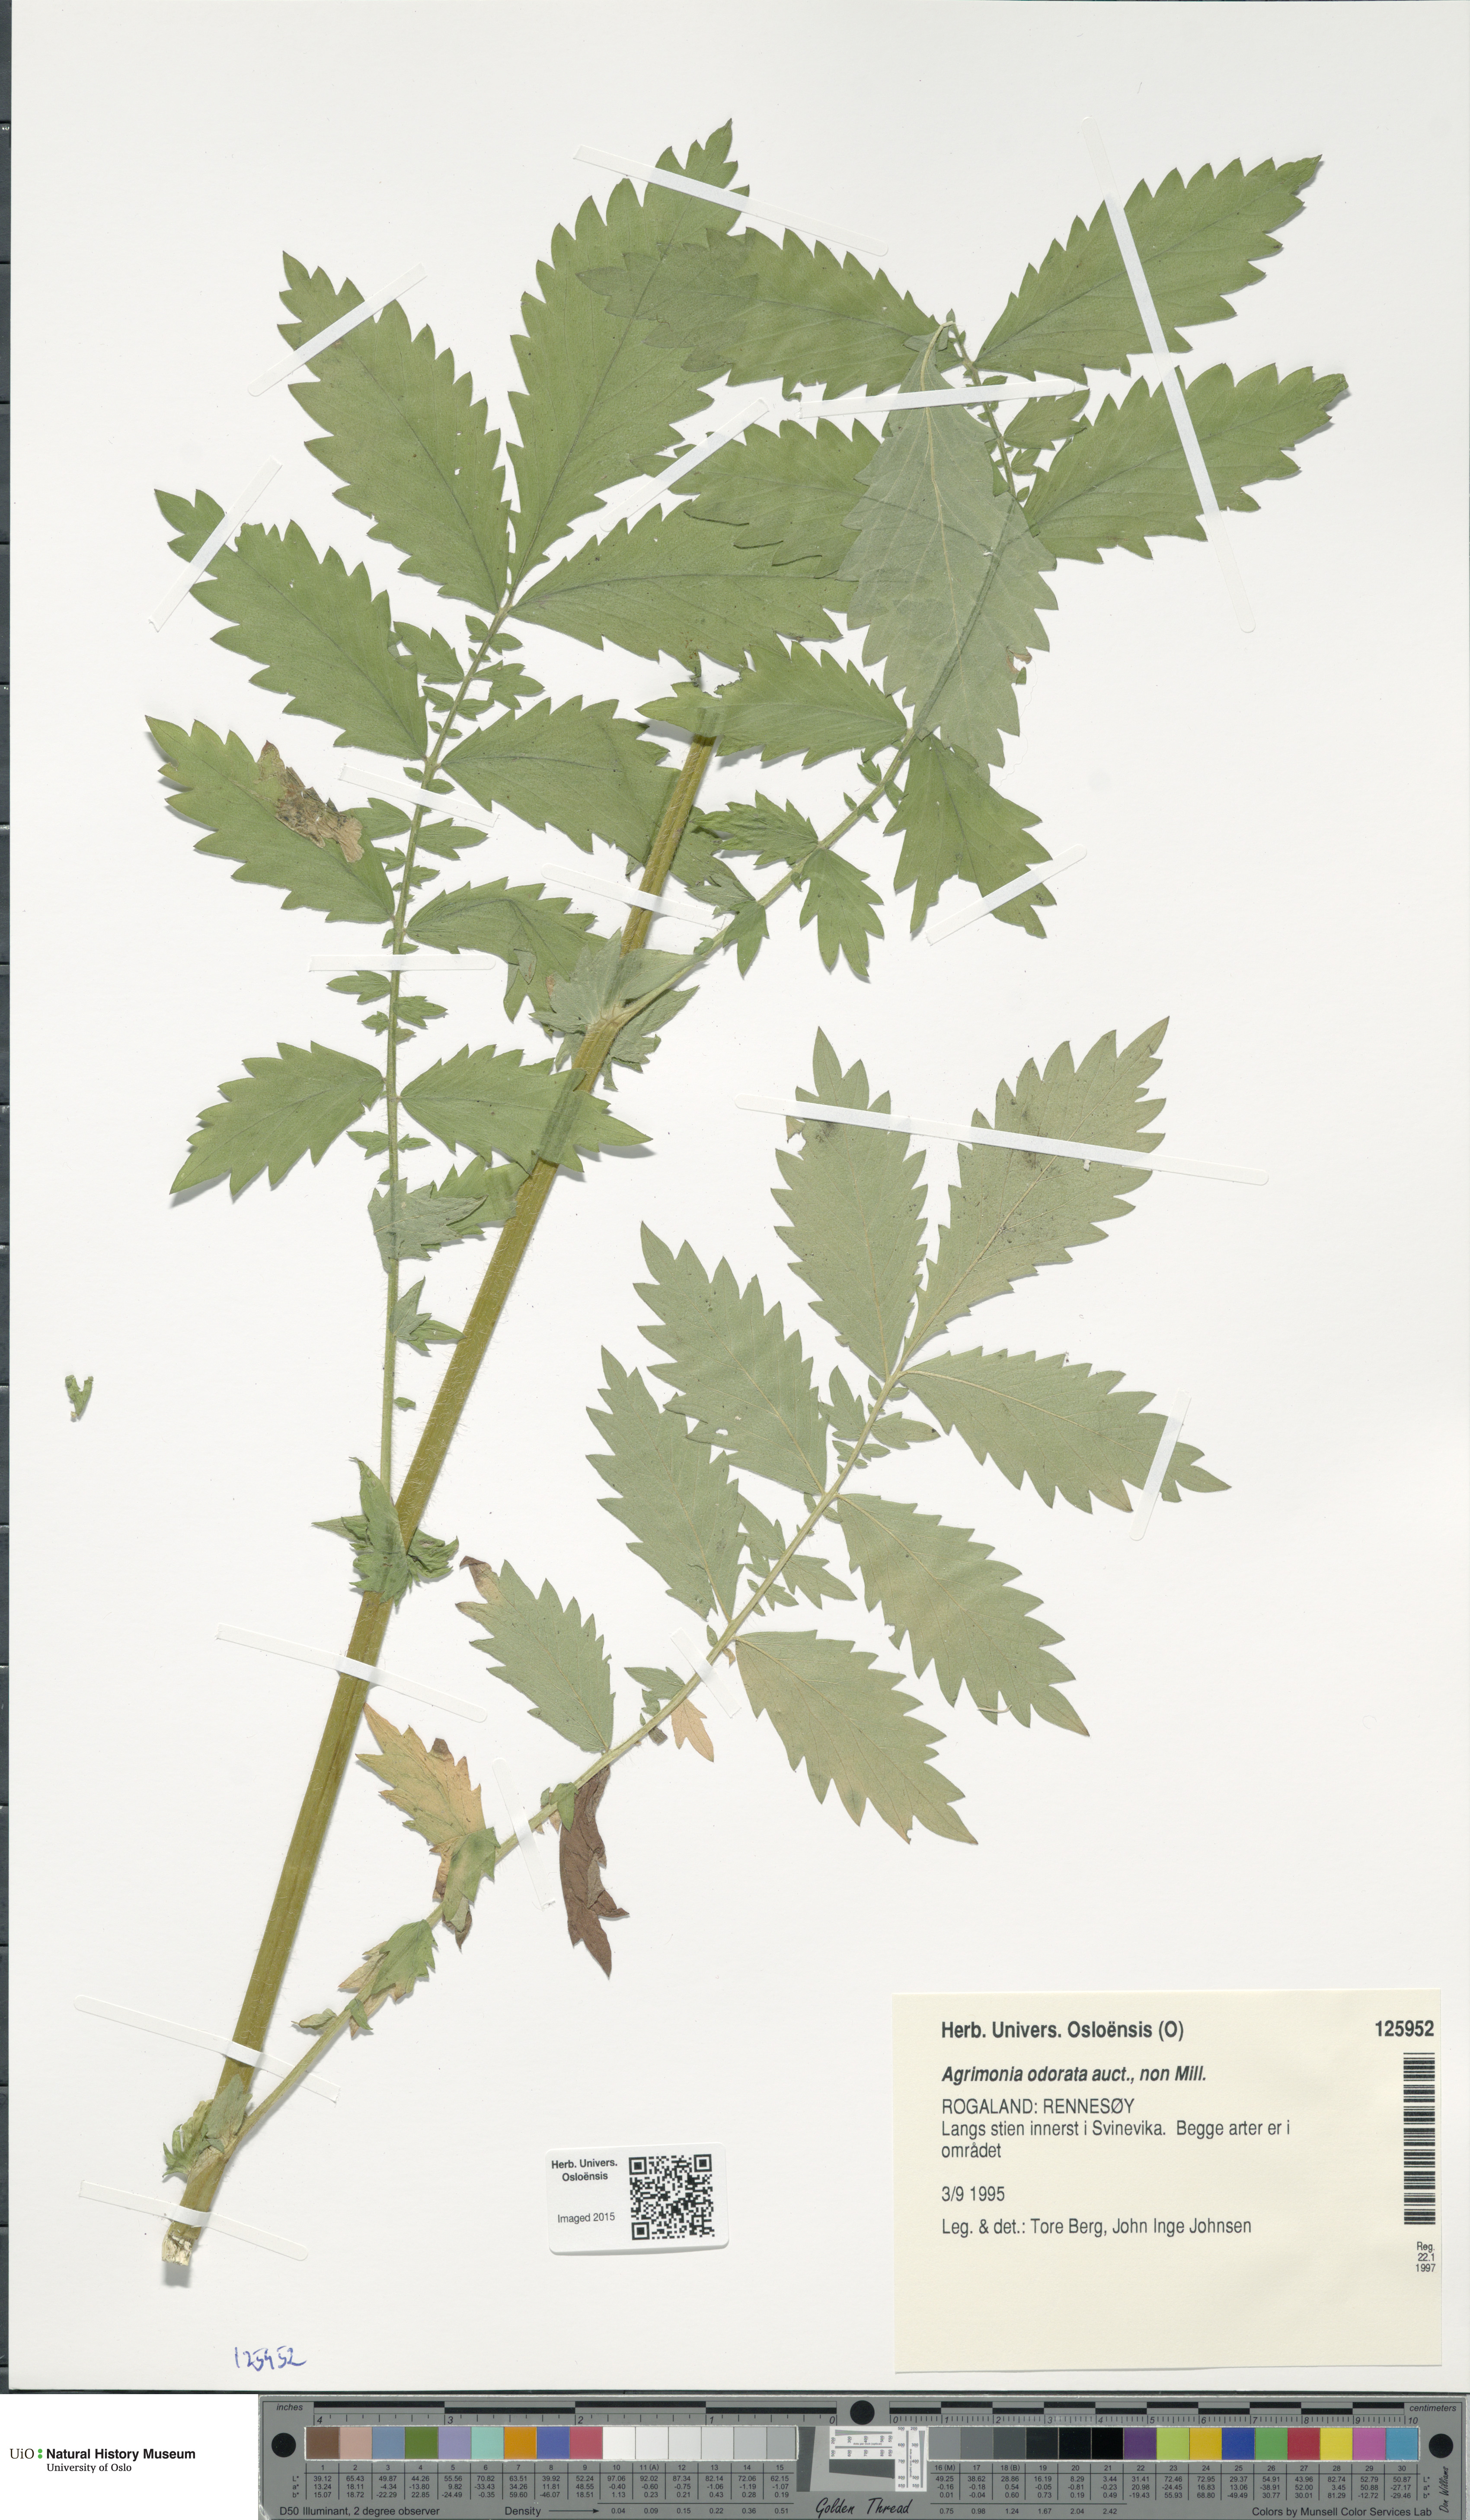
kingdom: Plantae
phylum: Tracheophyta
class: Magnoliopsida
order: Rosales
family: Rosaceae
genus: Agrimonia
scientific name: Agrimonia procera
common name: Fragrant agrimony
